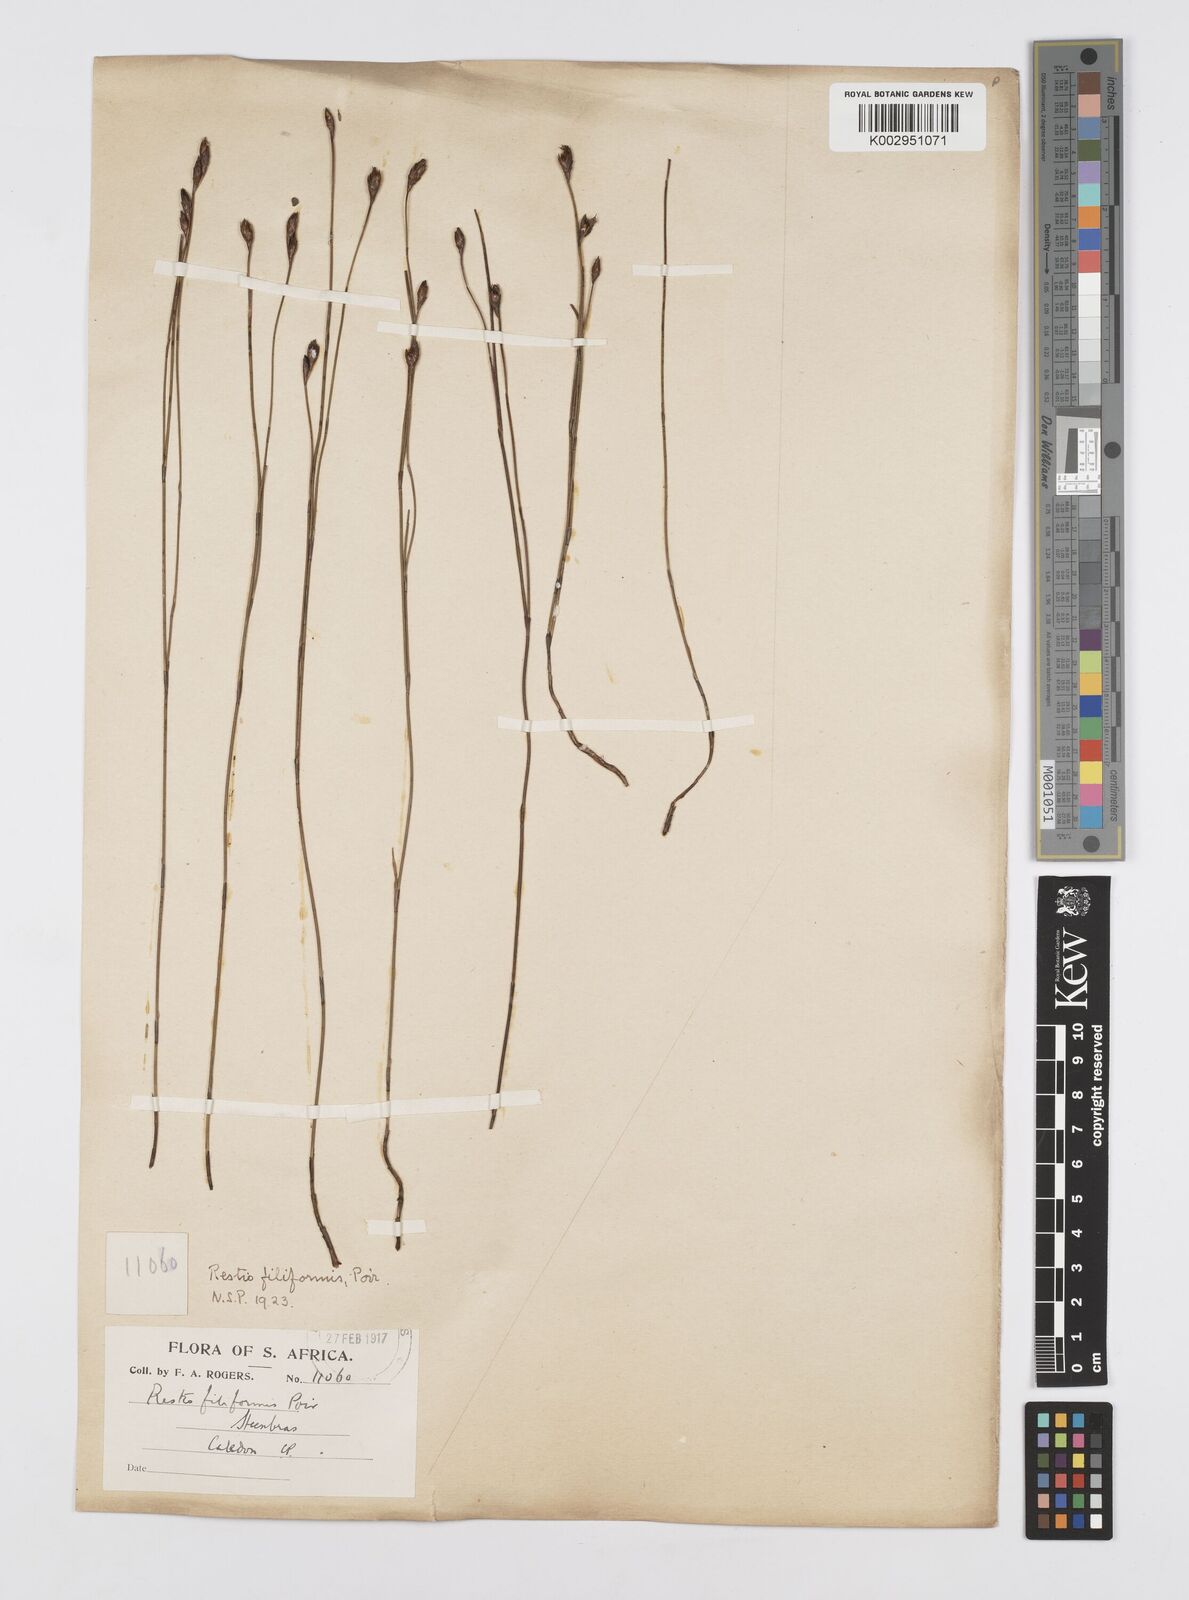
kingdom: Plantae
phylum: Tracheophyta
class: Liliopsida
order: Poales
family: Restionaceae
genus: Restio
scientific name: Restio filiformis
